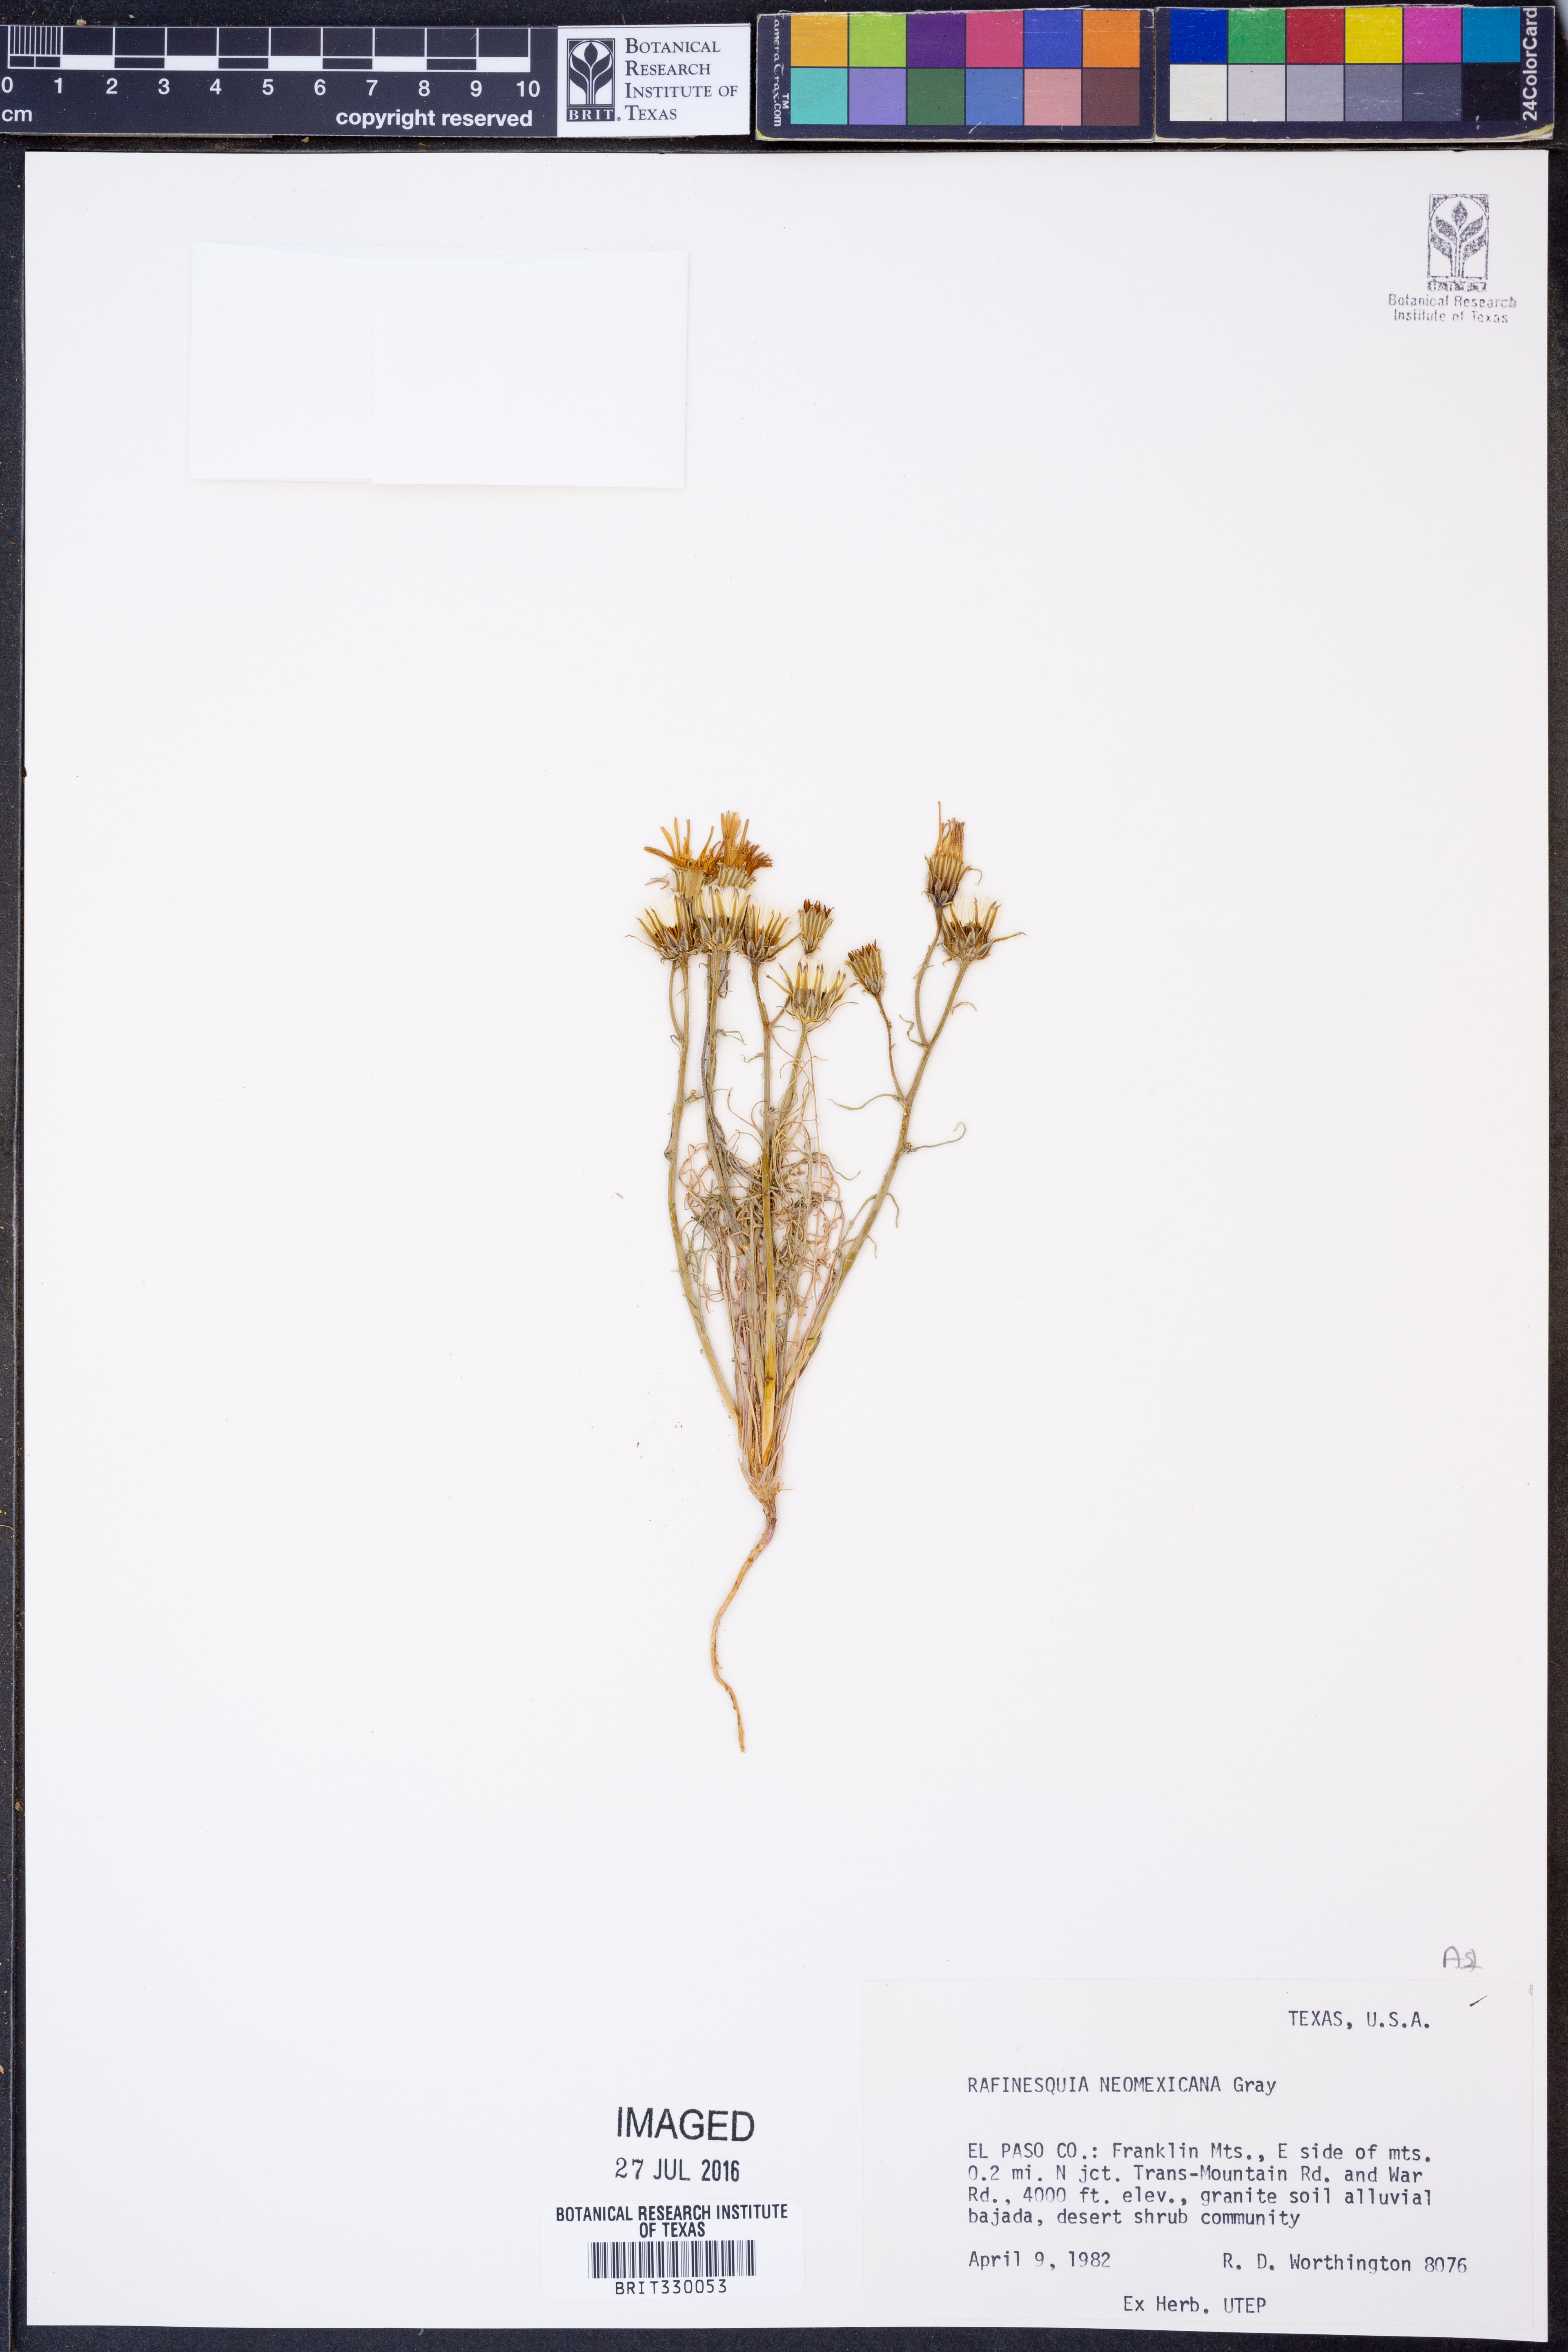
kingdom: Plantae
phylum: Tracheophyta
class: Magnoliopsida
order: Asterales
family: Asteraceae
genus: Rafinesquia
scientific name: Rafinesquia neomexicana
